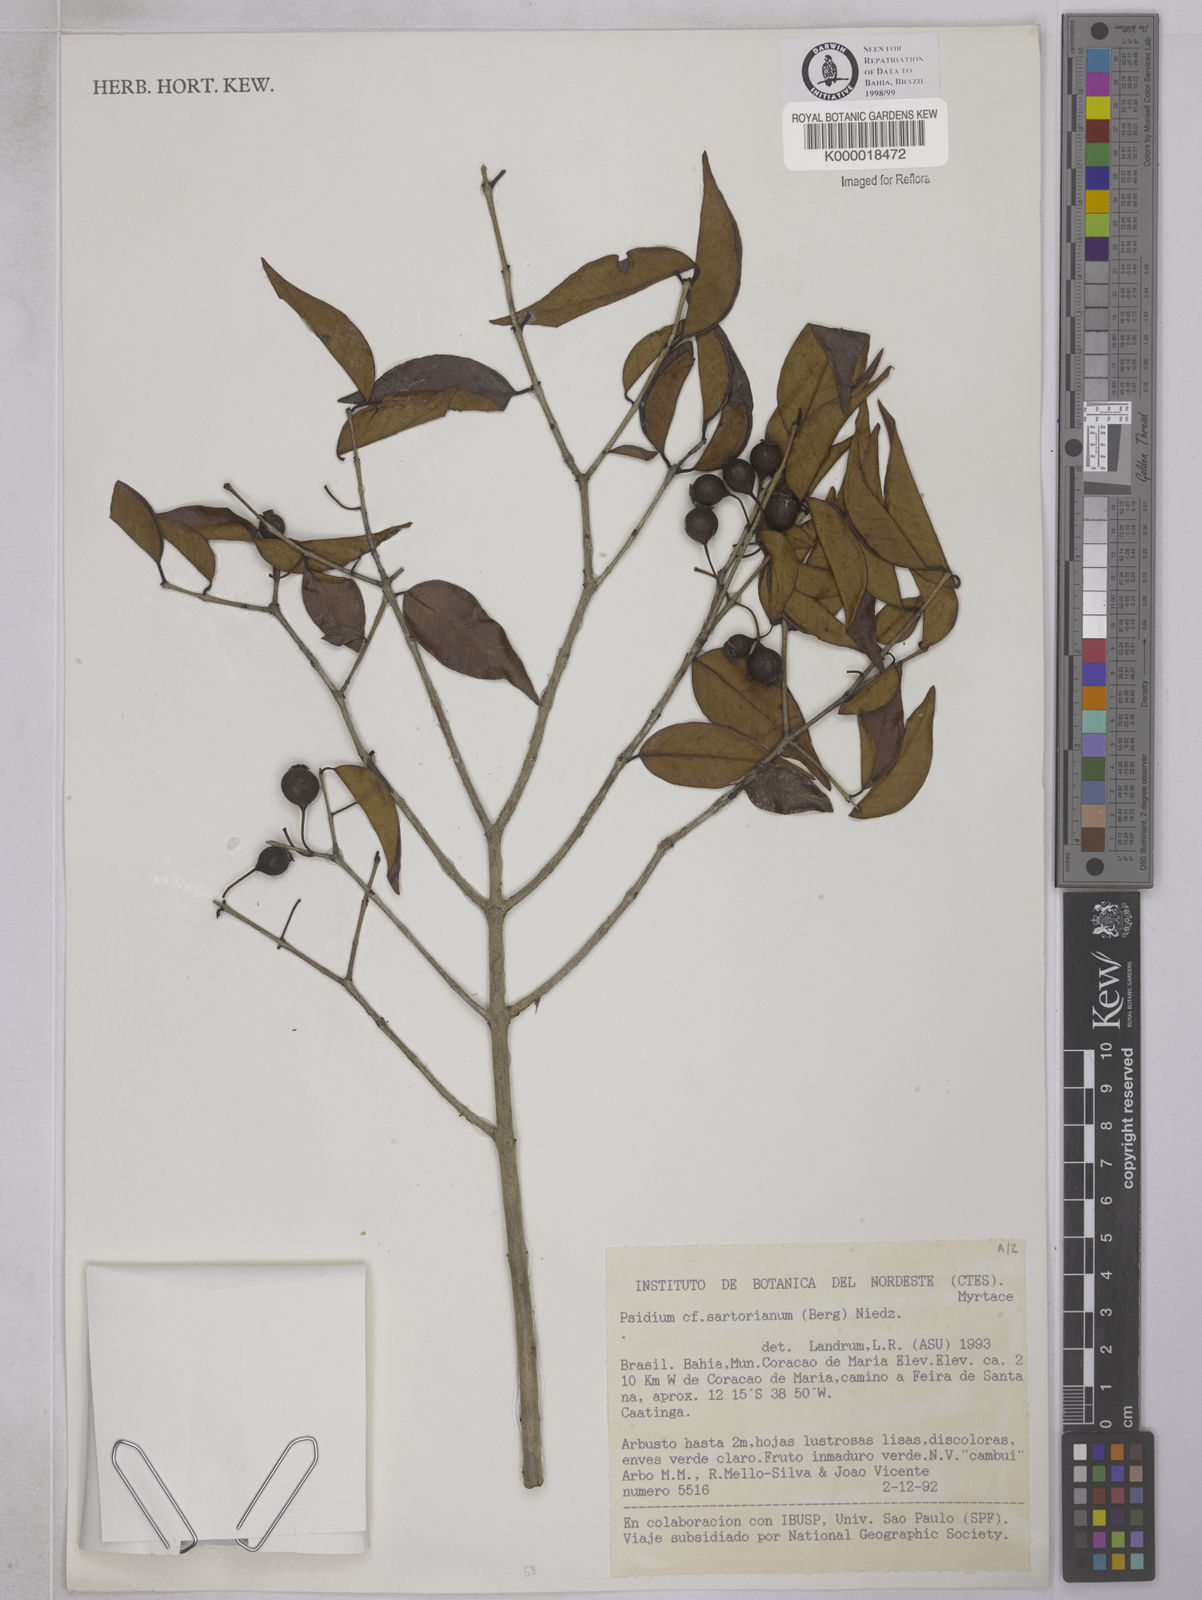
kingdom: Plantae
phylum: Tracheophyta
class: Magnoliopsida
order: Myrtales
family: Myrtaceae
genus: Psidium
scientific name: Psidium sartorianum
